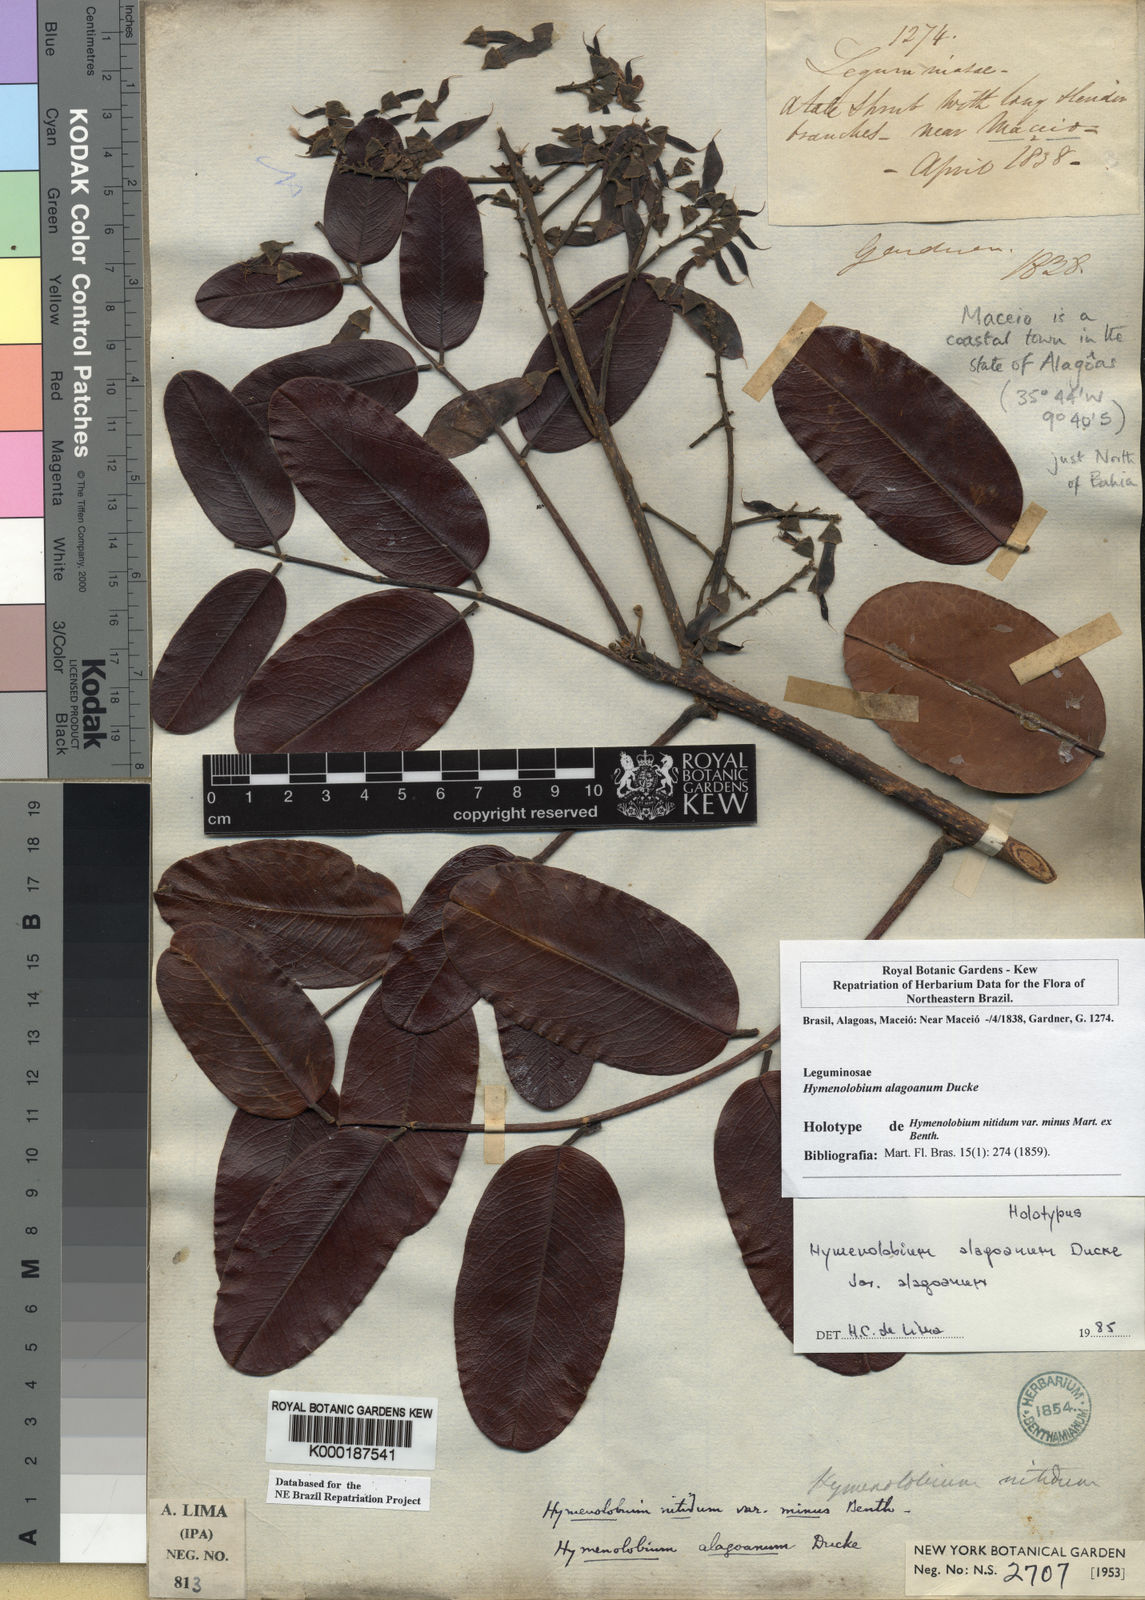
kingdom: Plantae
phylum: Tracheophyta
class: Magnoliopsida
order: Fabales
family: Fabaceae
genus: Hymenolobium
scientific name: Hymenolobium alagoanum
